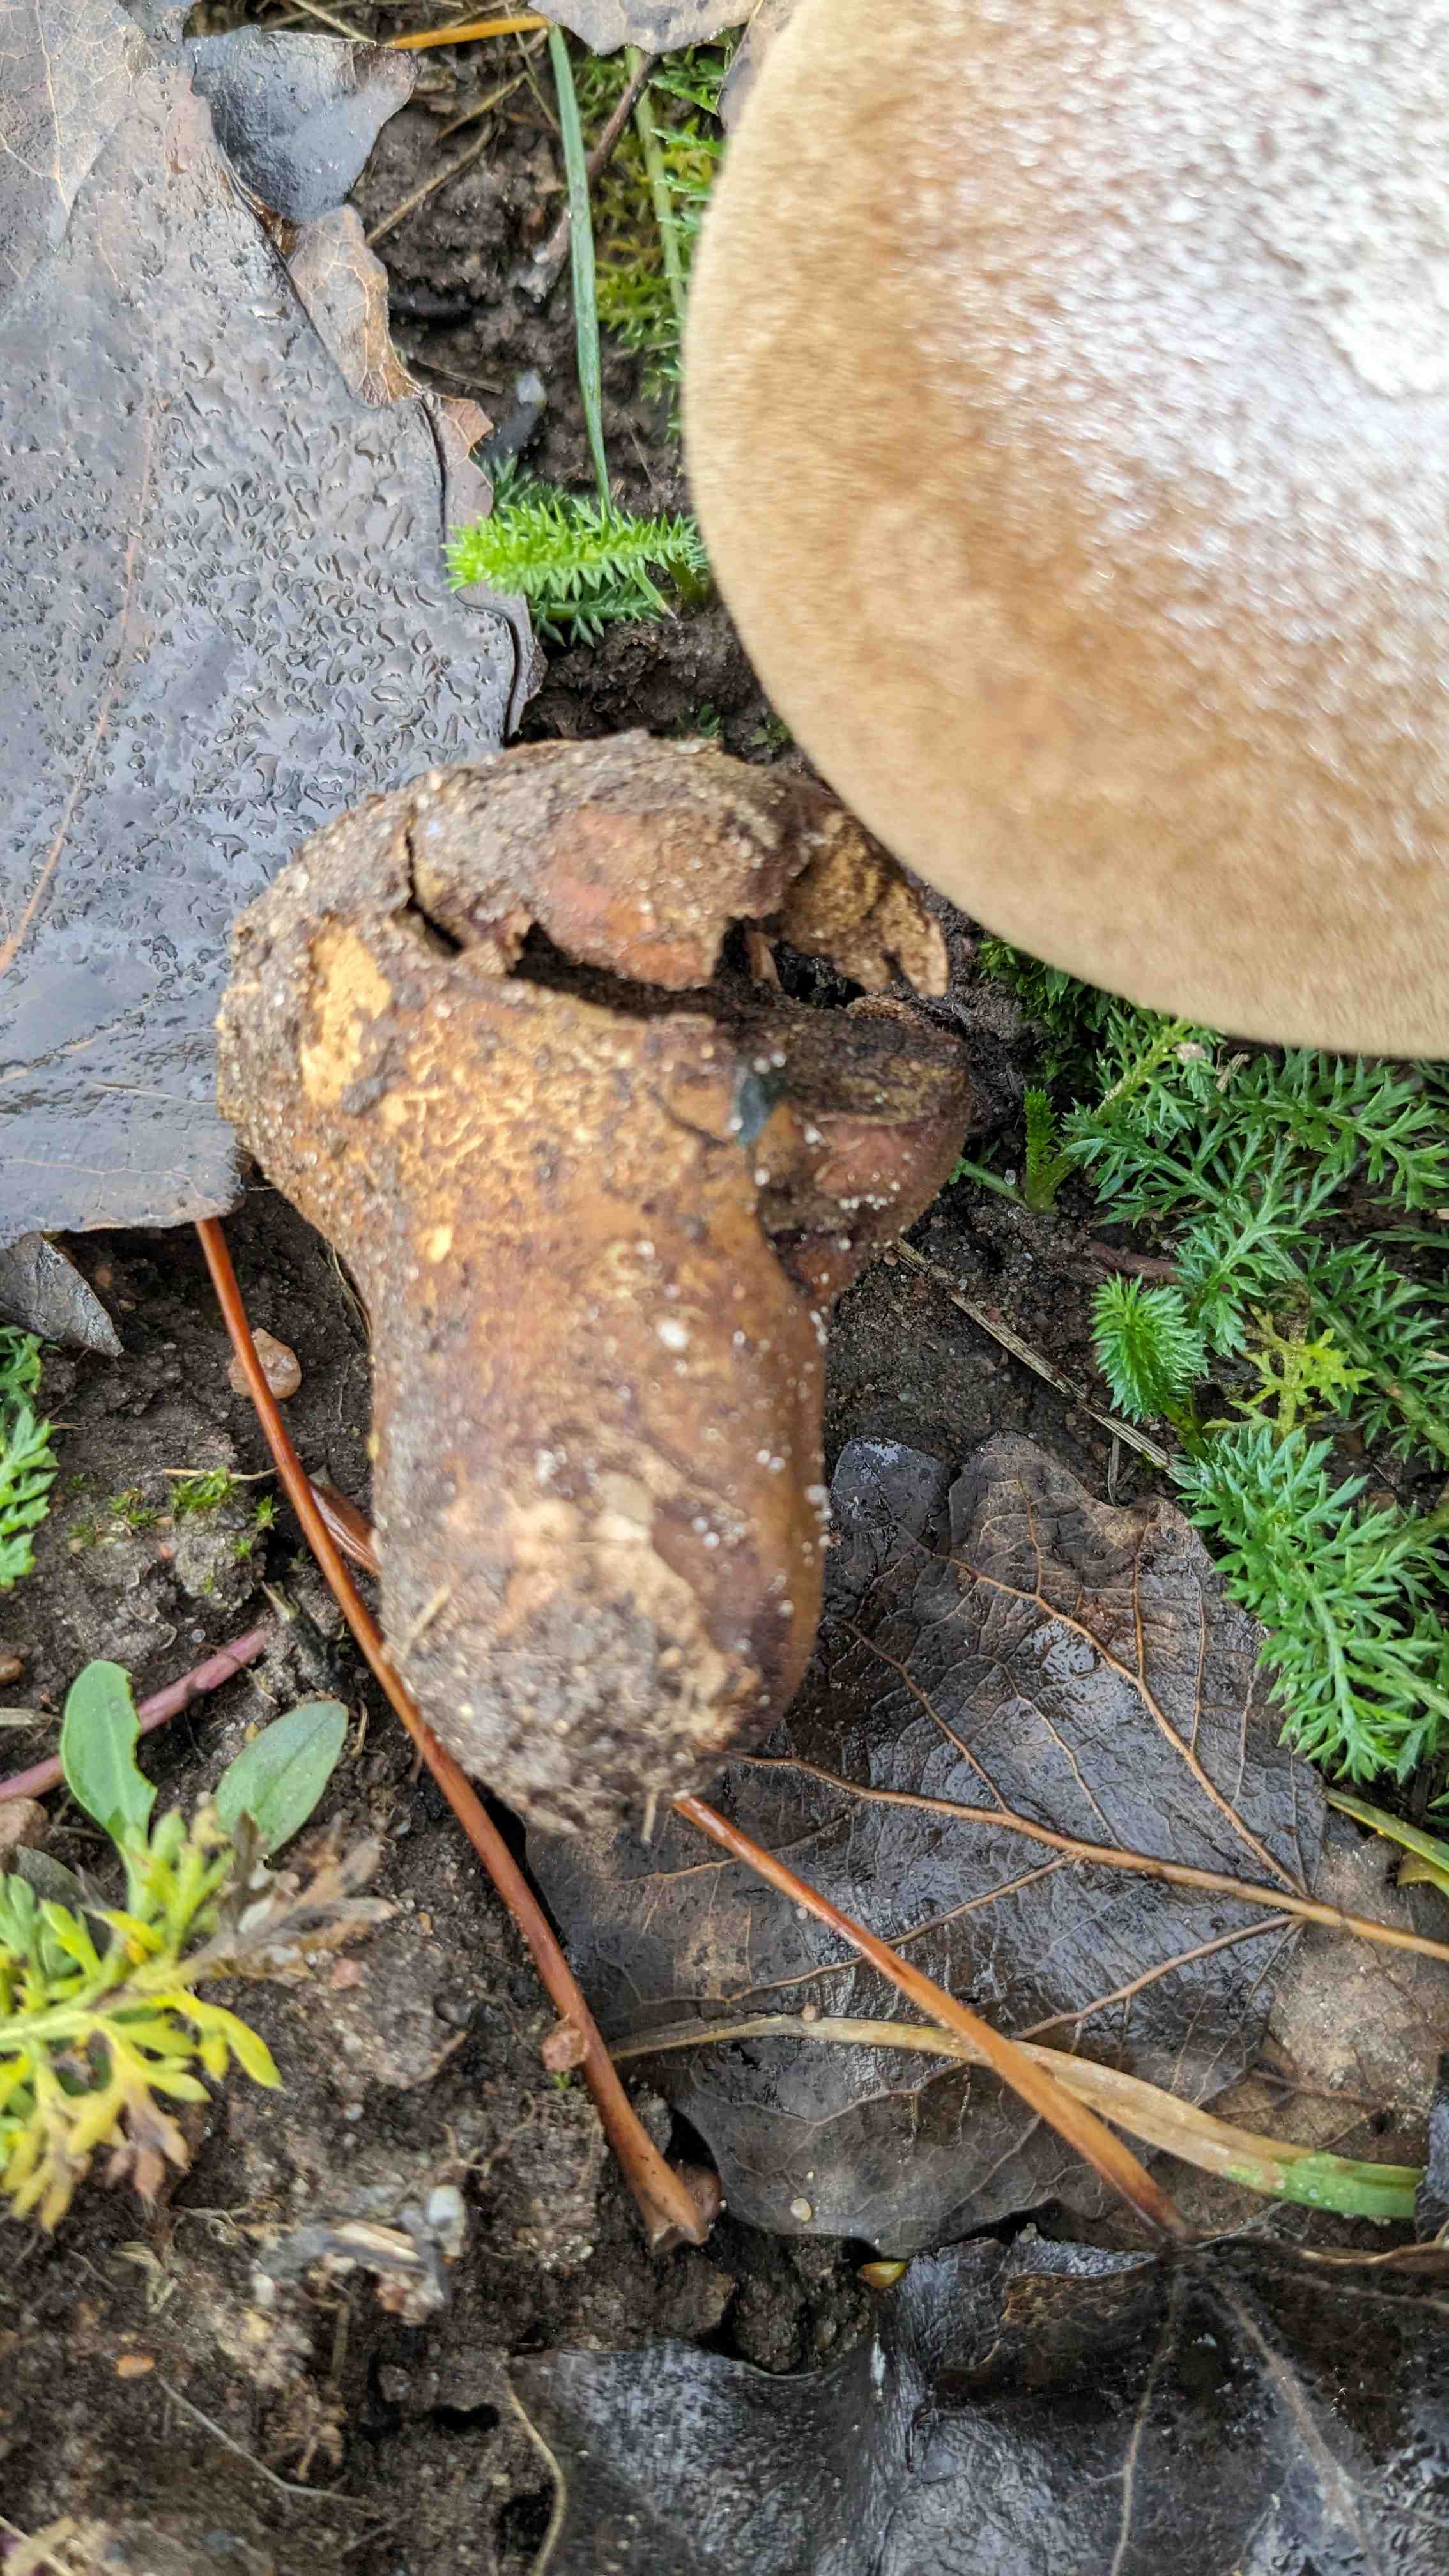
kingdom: Fungi
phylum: Basidiomycota
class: Agaricomycetes
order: Agaricales
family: Lycoperdaceae
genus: Lycoperdon
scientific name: Lycoperdon excipuliforme
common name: højstokket støvbold
